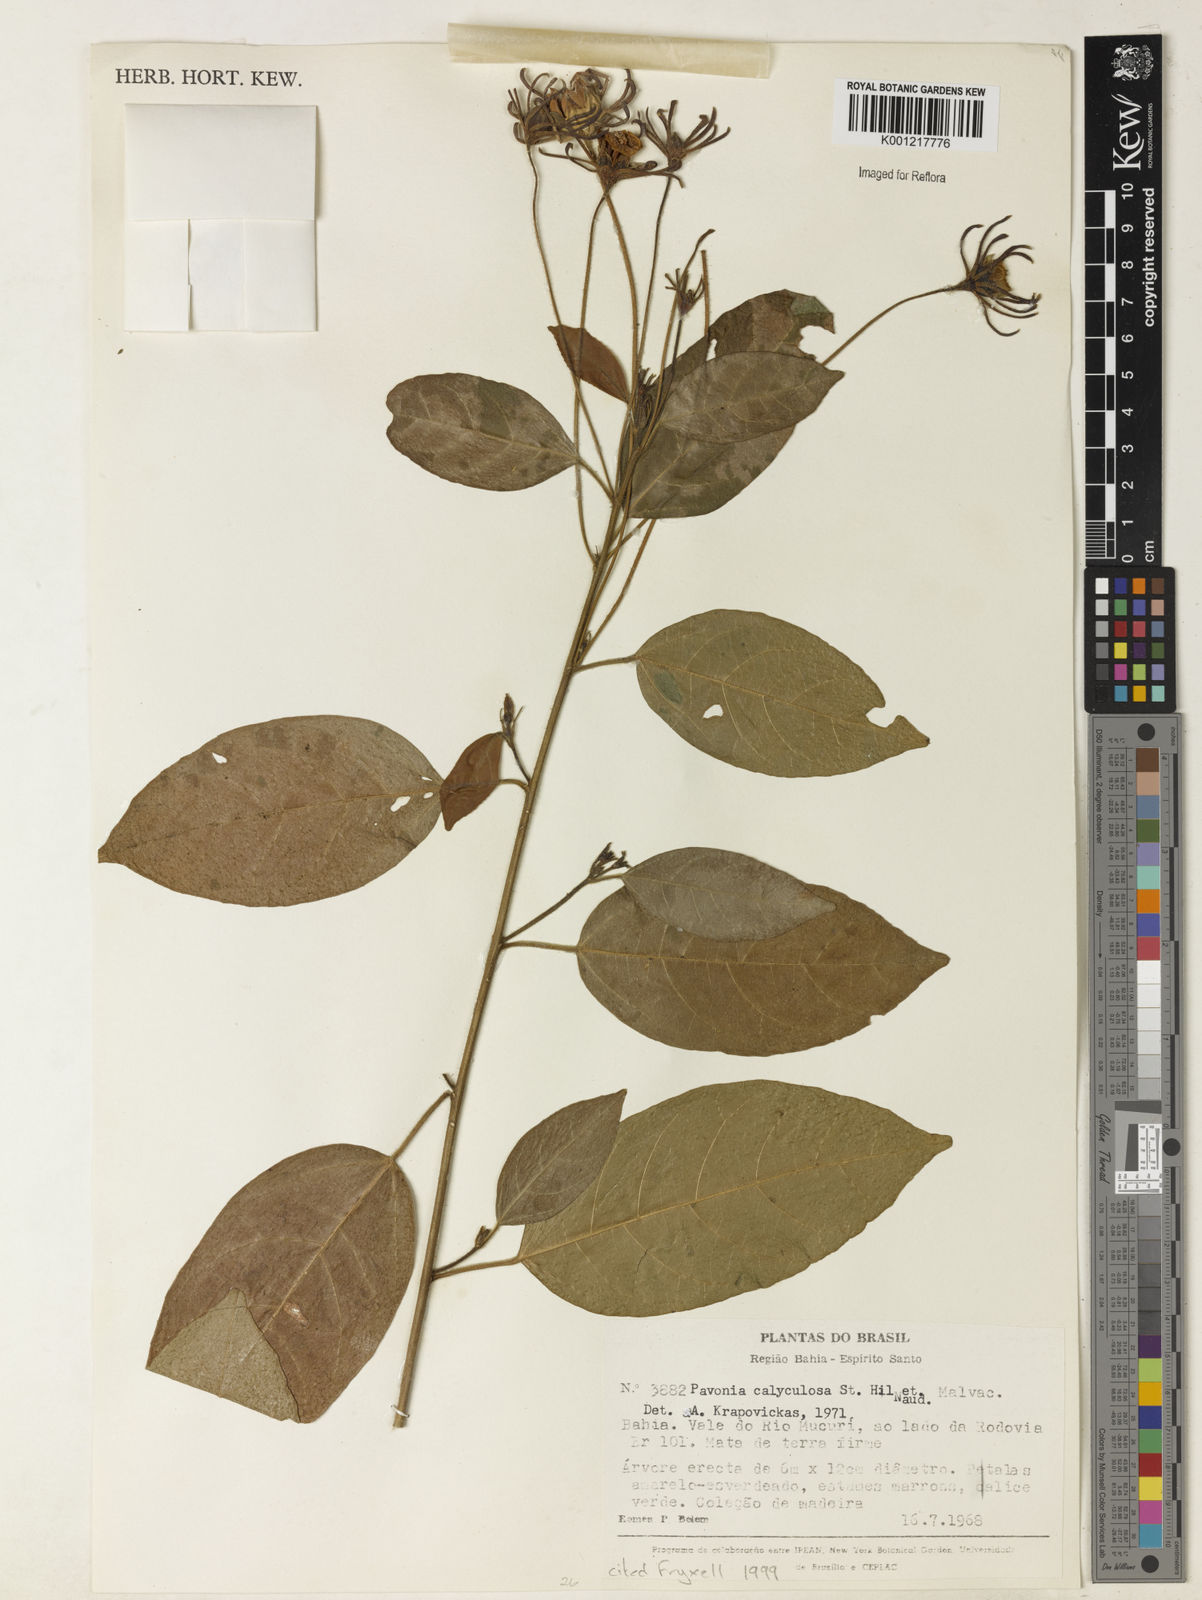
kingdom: Plantae
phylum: Tracheophyta
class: Magnoliopsida
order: Malvales
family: Malvaceae
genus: Pavonia
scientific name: Pavonia calyculosa
